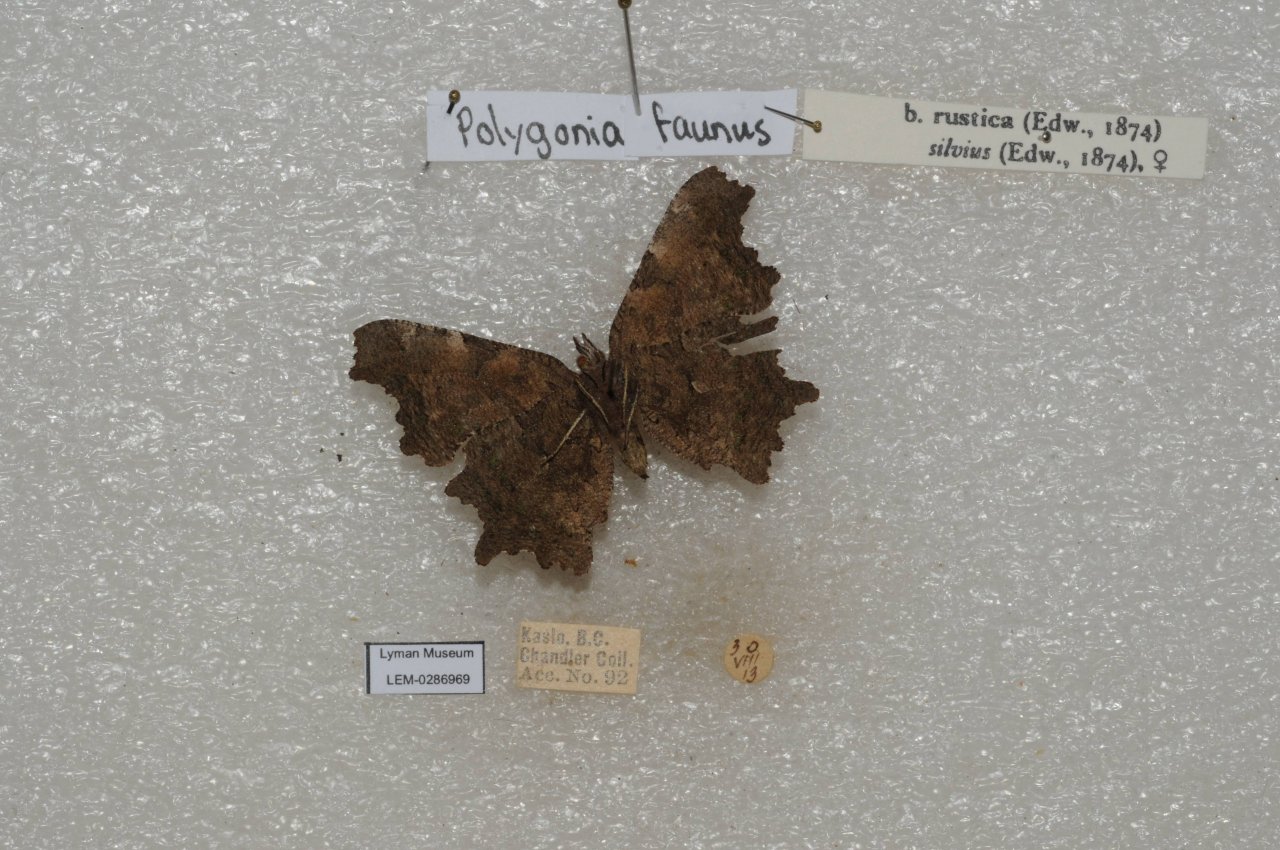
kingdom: Animalia
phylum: Arthropoda
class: Insecta
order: Lepidoptera
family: Nymphalidae
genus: Polygonia
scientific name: Polygonia faunus
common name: Green Comma
